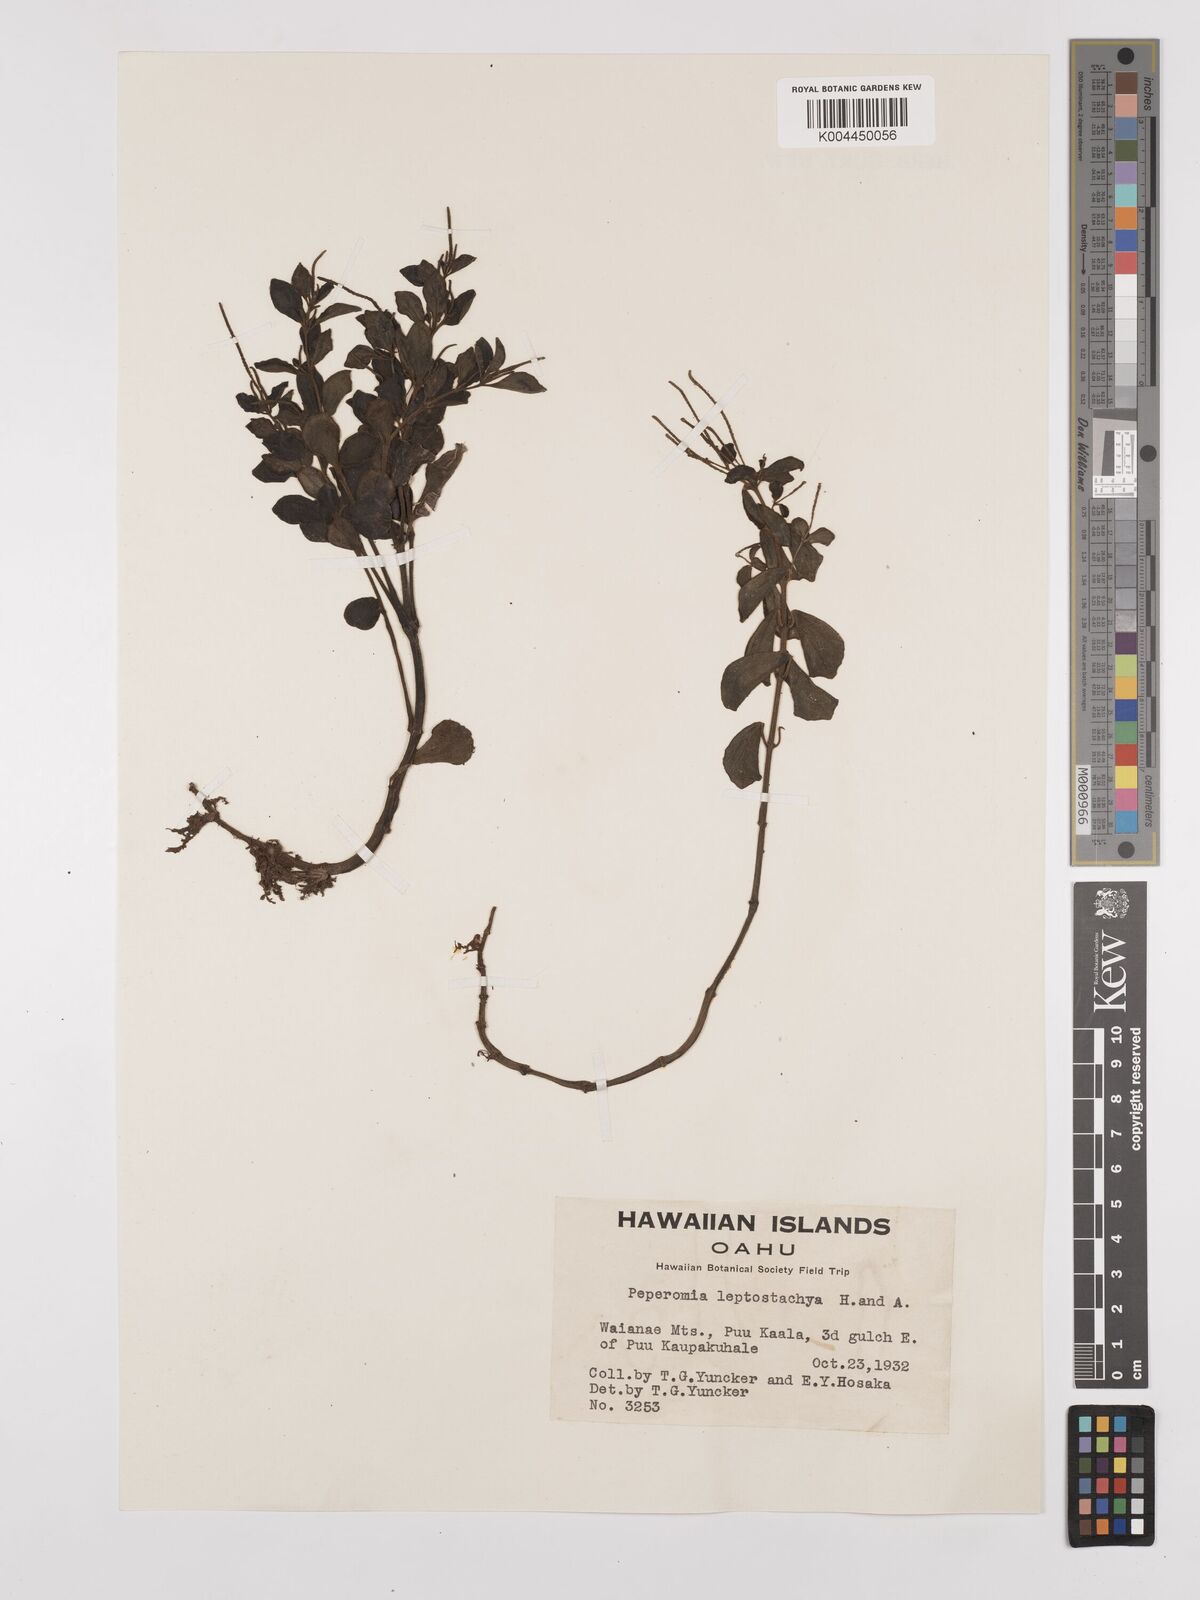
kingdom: Plantae
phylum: Tracheophyta
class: Magnoliopsida
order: Piperales
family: Piperaceae
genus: Peperomia
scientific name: Peperomia leptostachya
